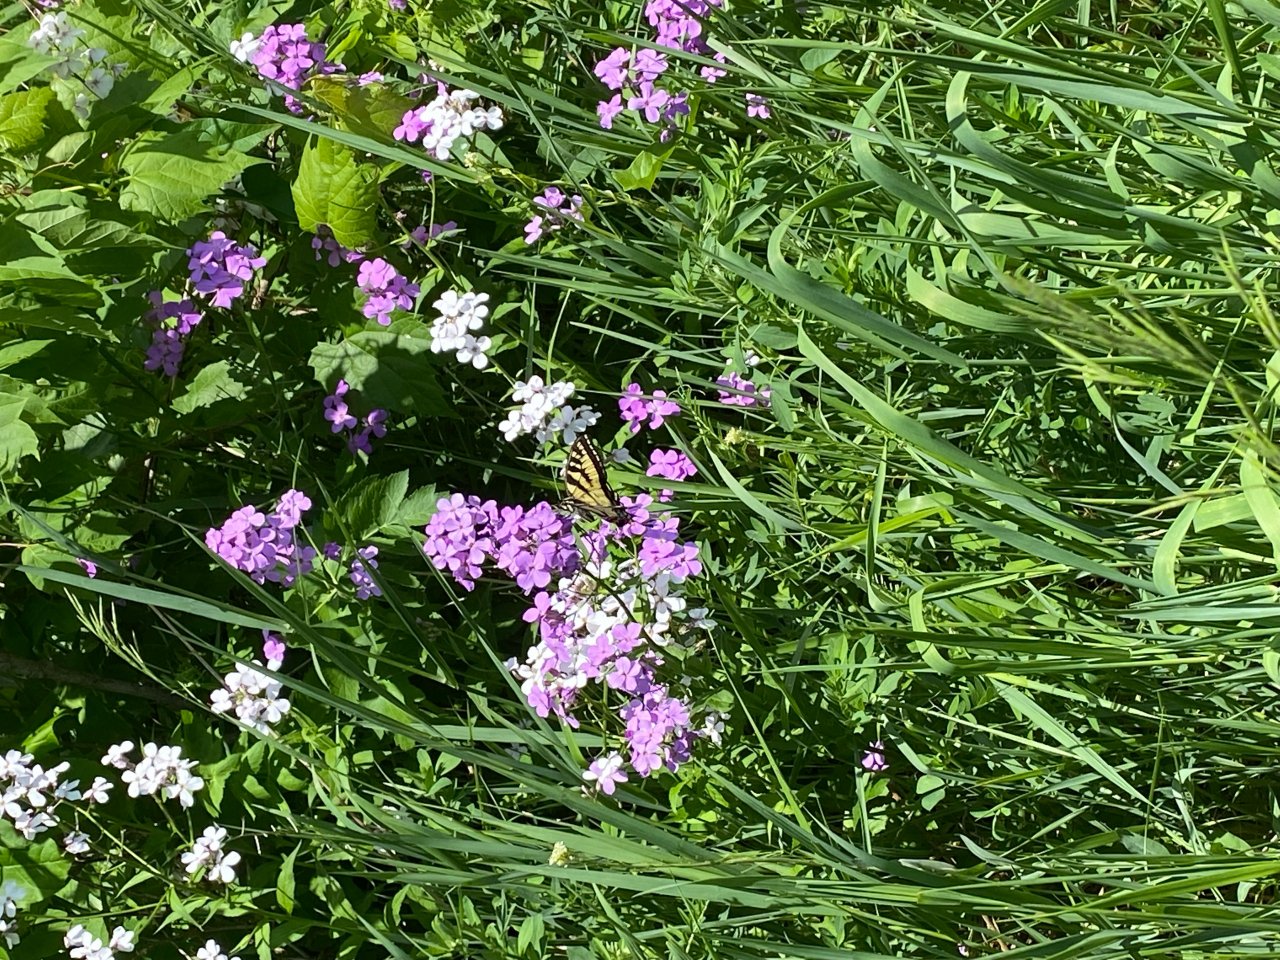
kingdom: Animalia
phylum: Arthropoda
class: Insecta
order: Lepidoptera
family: Papilionidae
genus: Pterourus
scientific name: Pterourus canadensis
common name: Canadian Tiger Swallowtail
